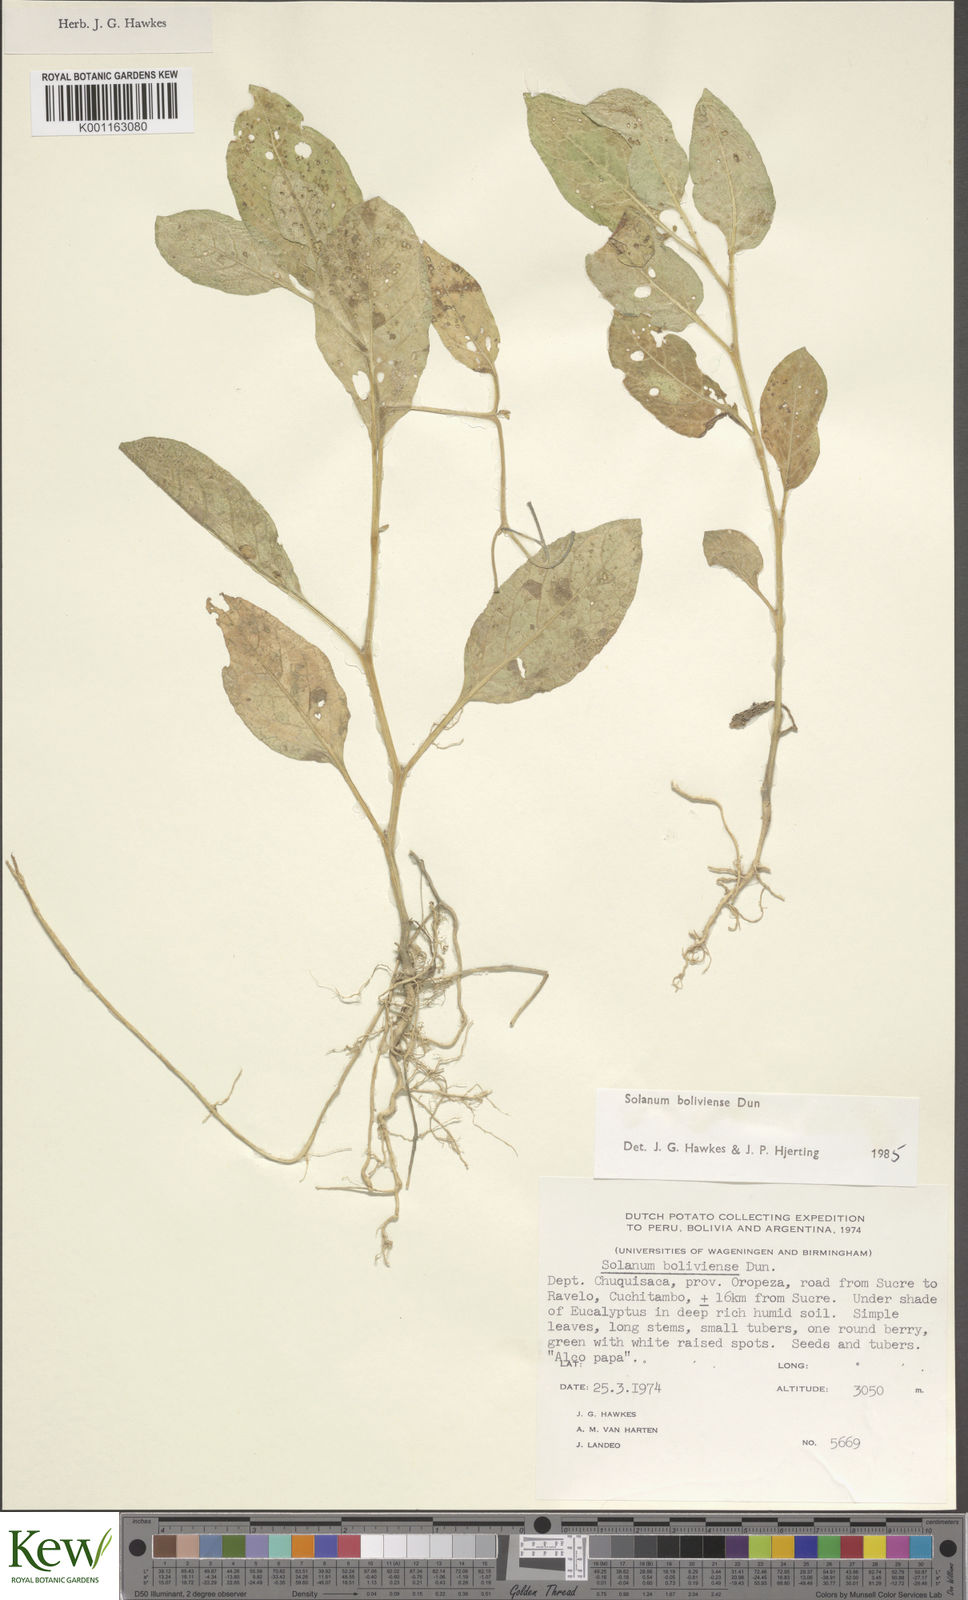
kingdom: Plantae
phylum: Tracheophyta
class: Magnoliopsida
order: Solanales
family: Solanaceae
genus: Solanum
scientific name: Solanum boliviense
